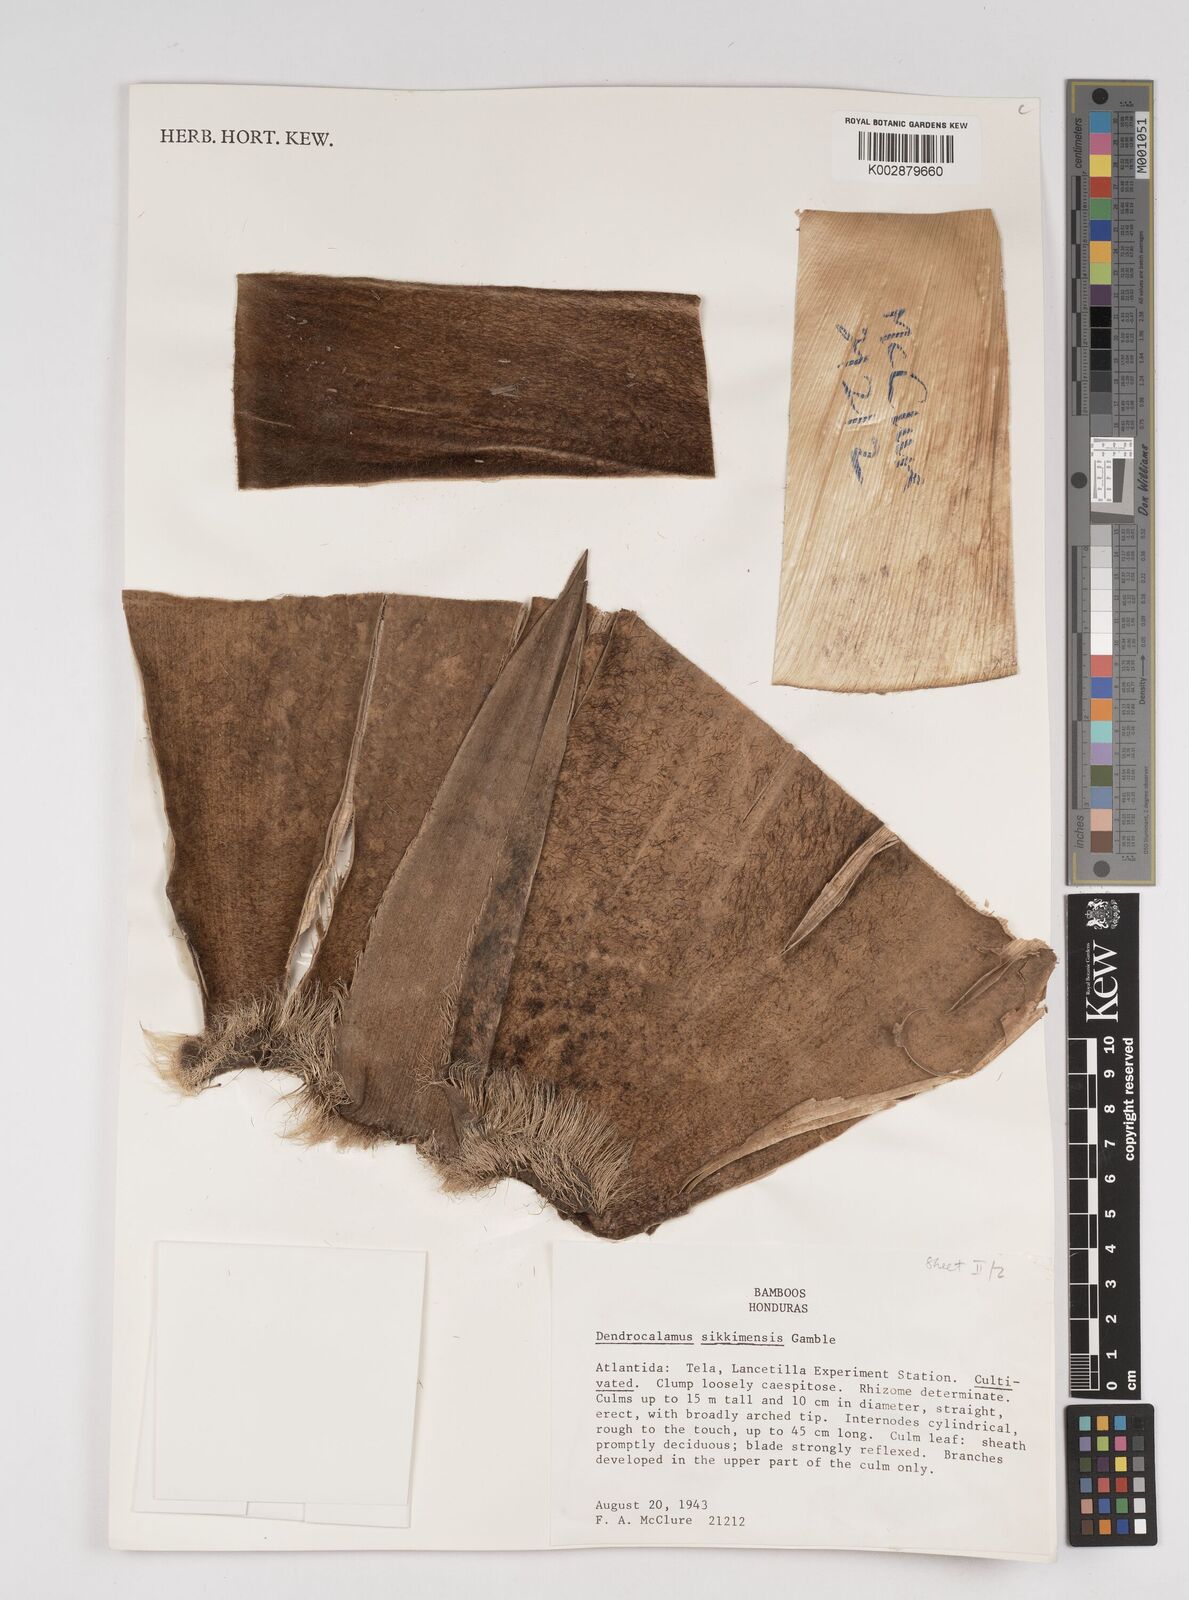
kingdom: Plantae
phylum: Tracheophyta
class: Liliopsida
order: Poales
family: Poaceae
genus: Dendrocalamus
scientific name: Dendrocalamus sikkimensis
